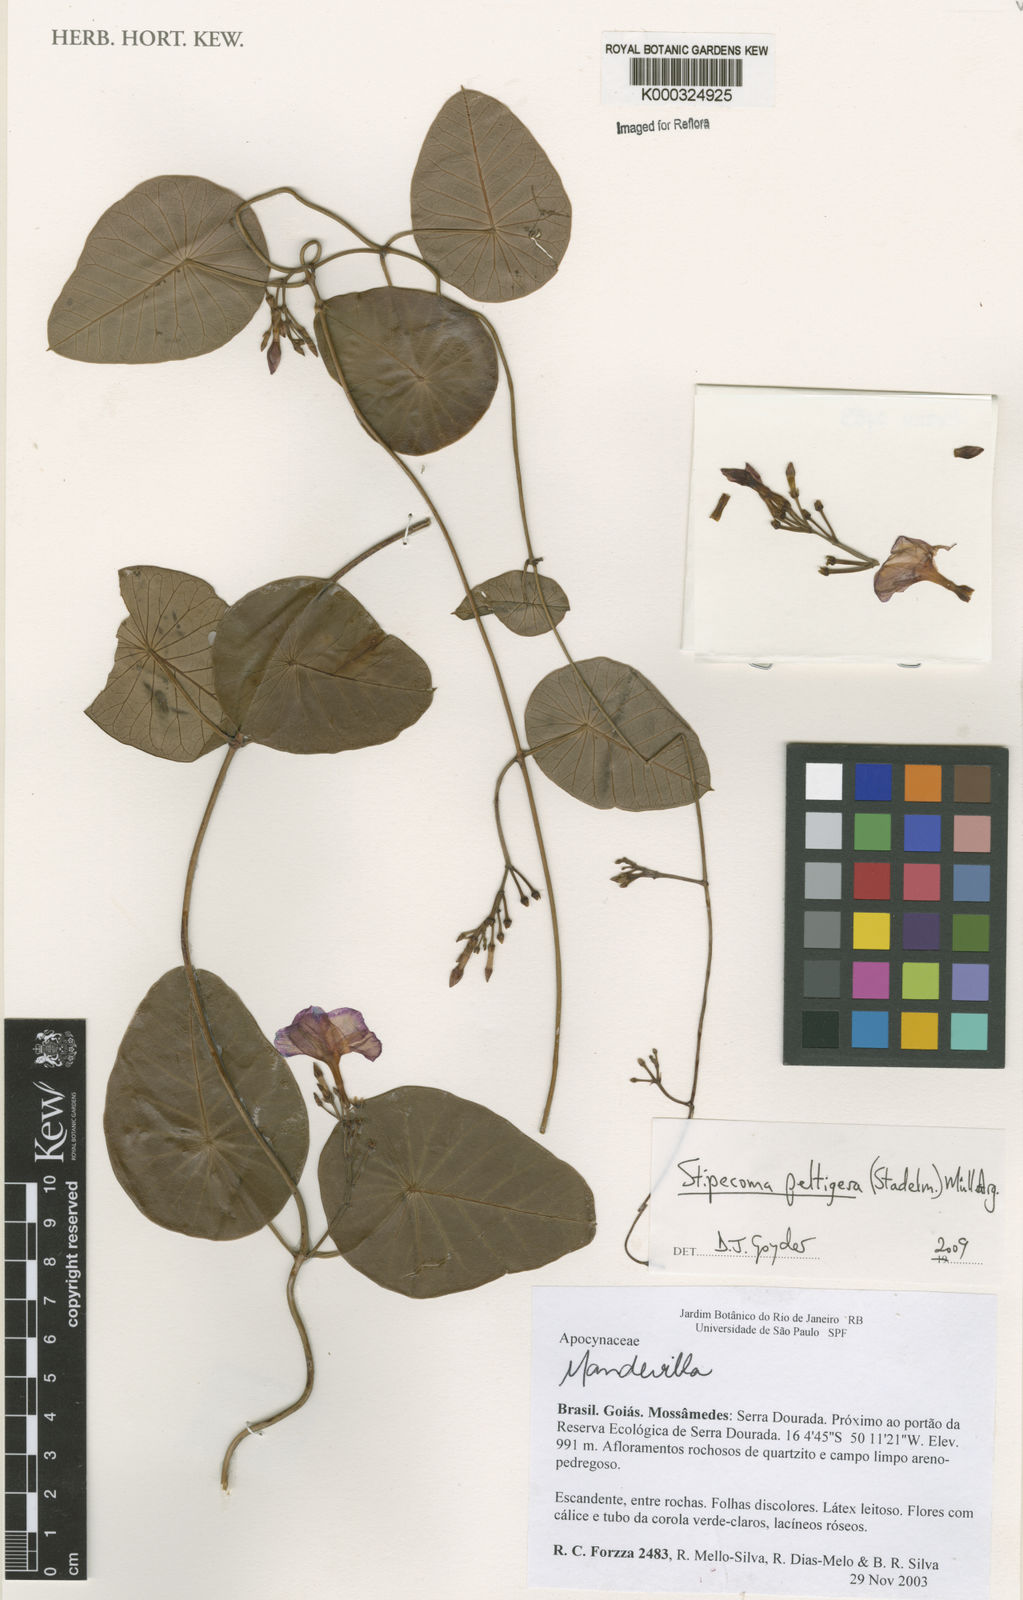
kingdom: Plantae
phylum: Tracheophyta
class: Magnoliopsida
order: Gentianales
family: Apocynaceae
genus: Stipecoma
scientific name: Stipecoma
